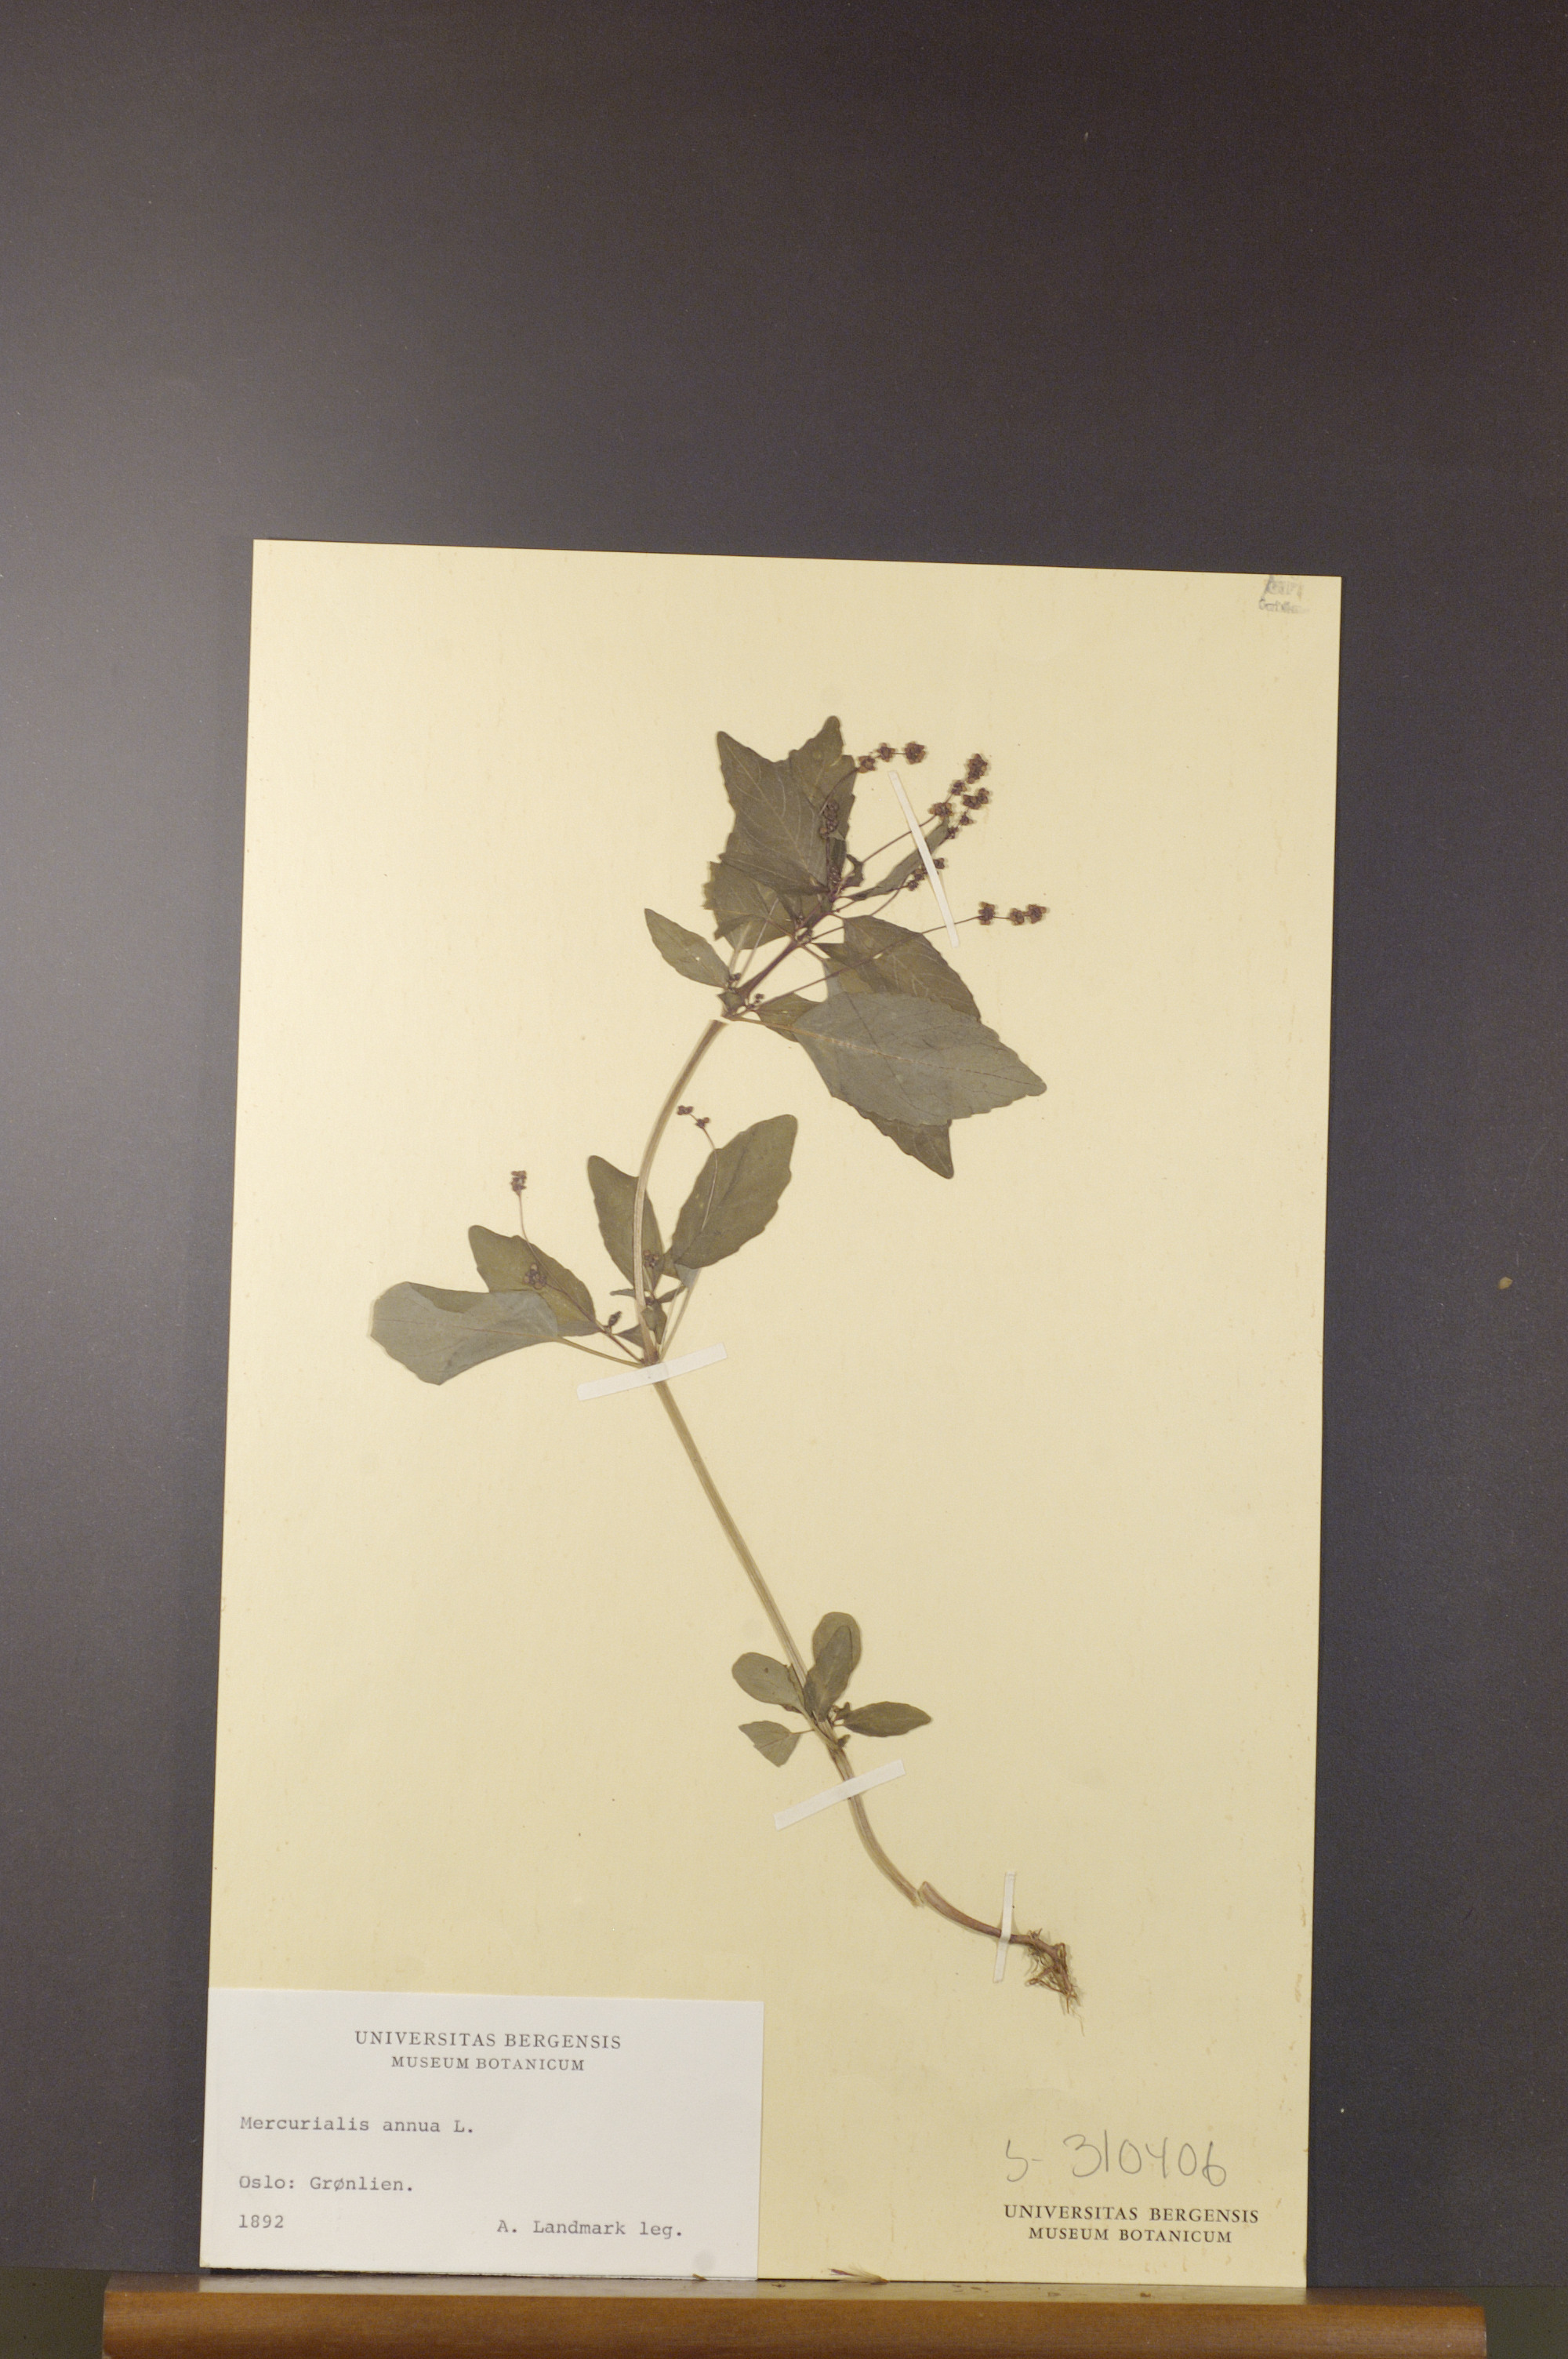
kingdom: Plantae
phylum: Tracheophyta
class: Magnoliopsida
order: Malpighiales
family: Euphorbiaceae
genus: Mercurialis
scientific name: Mercurialis annua
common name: Annual mercury
